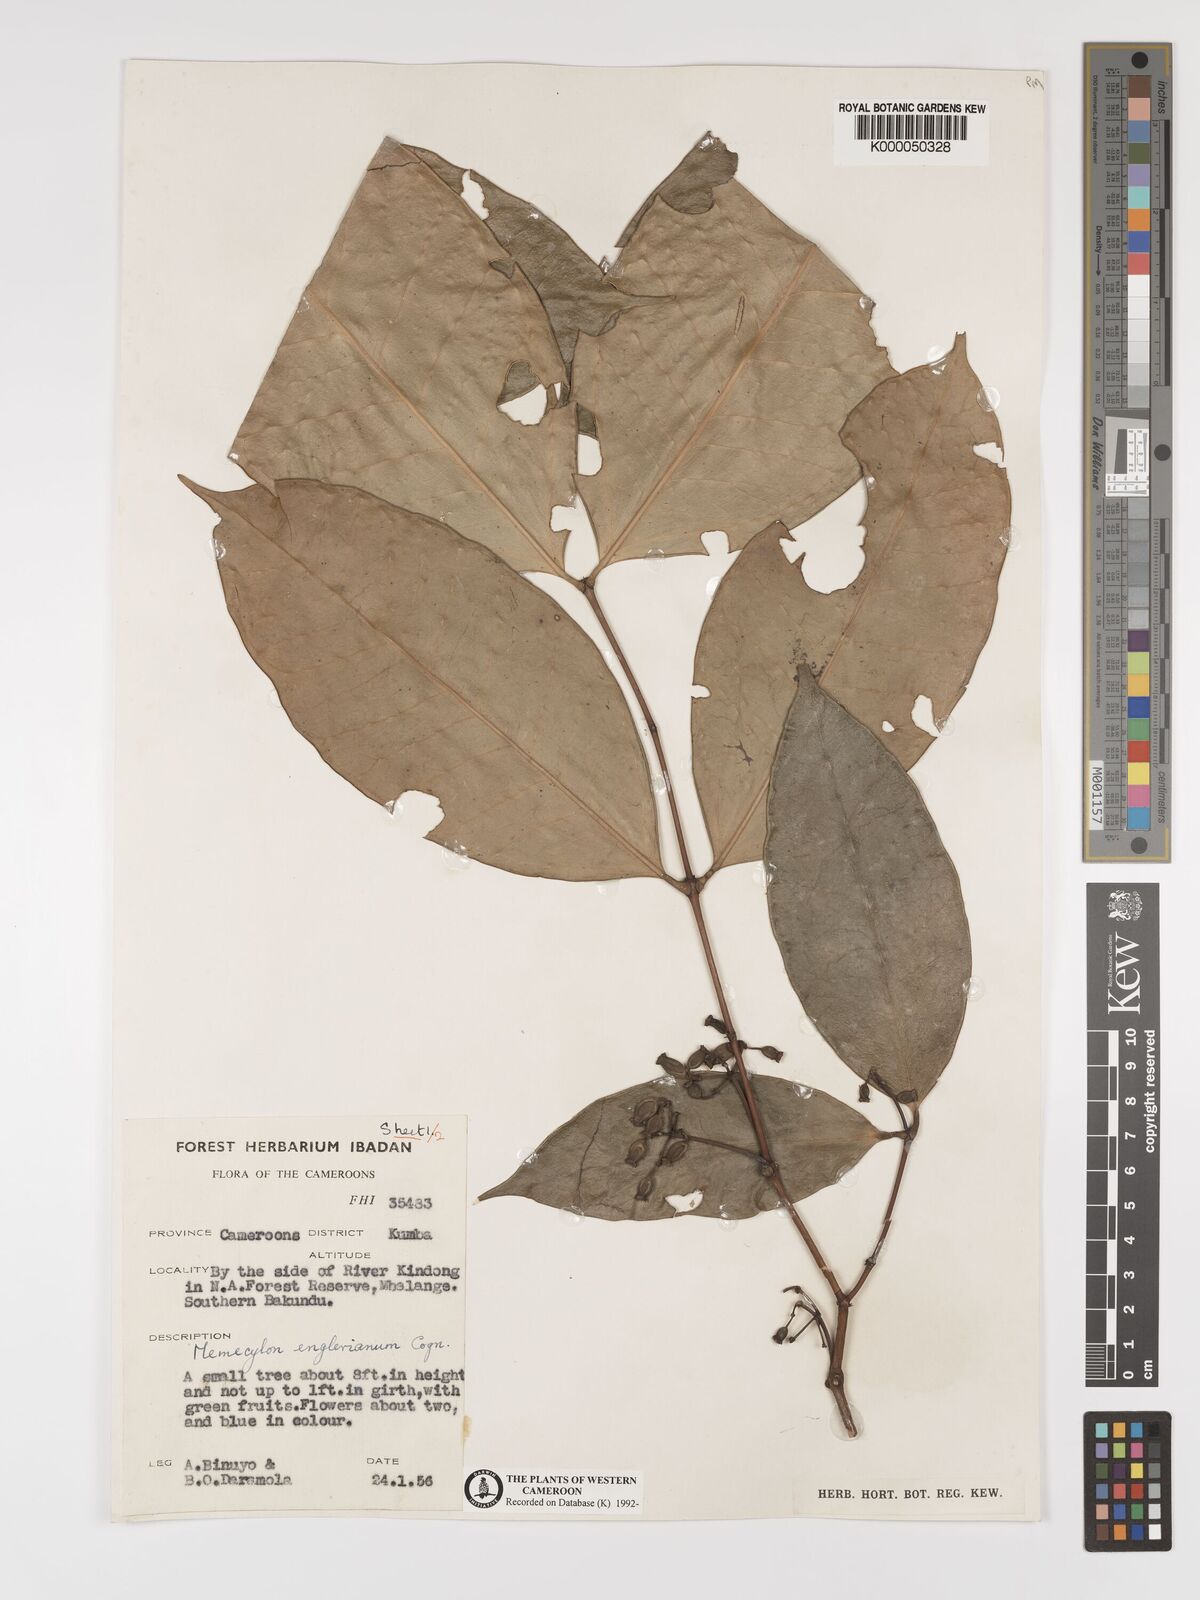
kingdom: Plantae
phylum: Tracheophyta
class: Magnoliopsida
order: Myrtales
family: Melastomataceae
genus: Memecylon
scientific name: Memecylon englerianum
